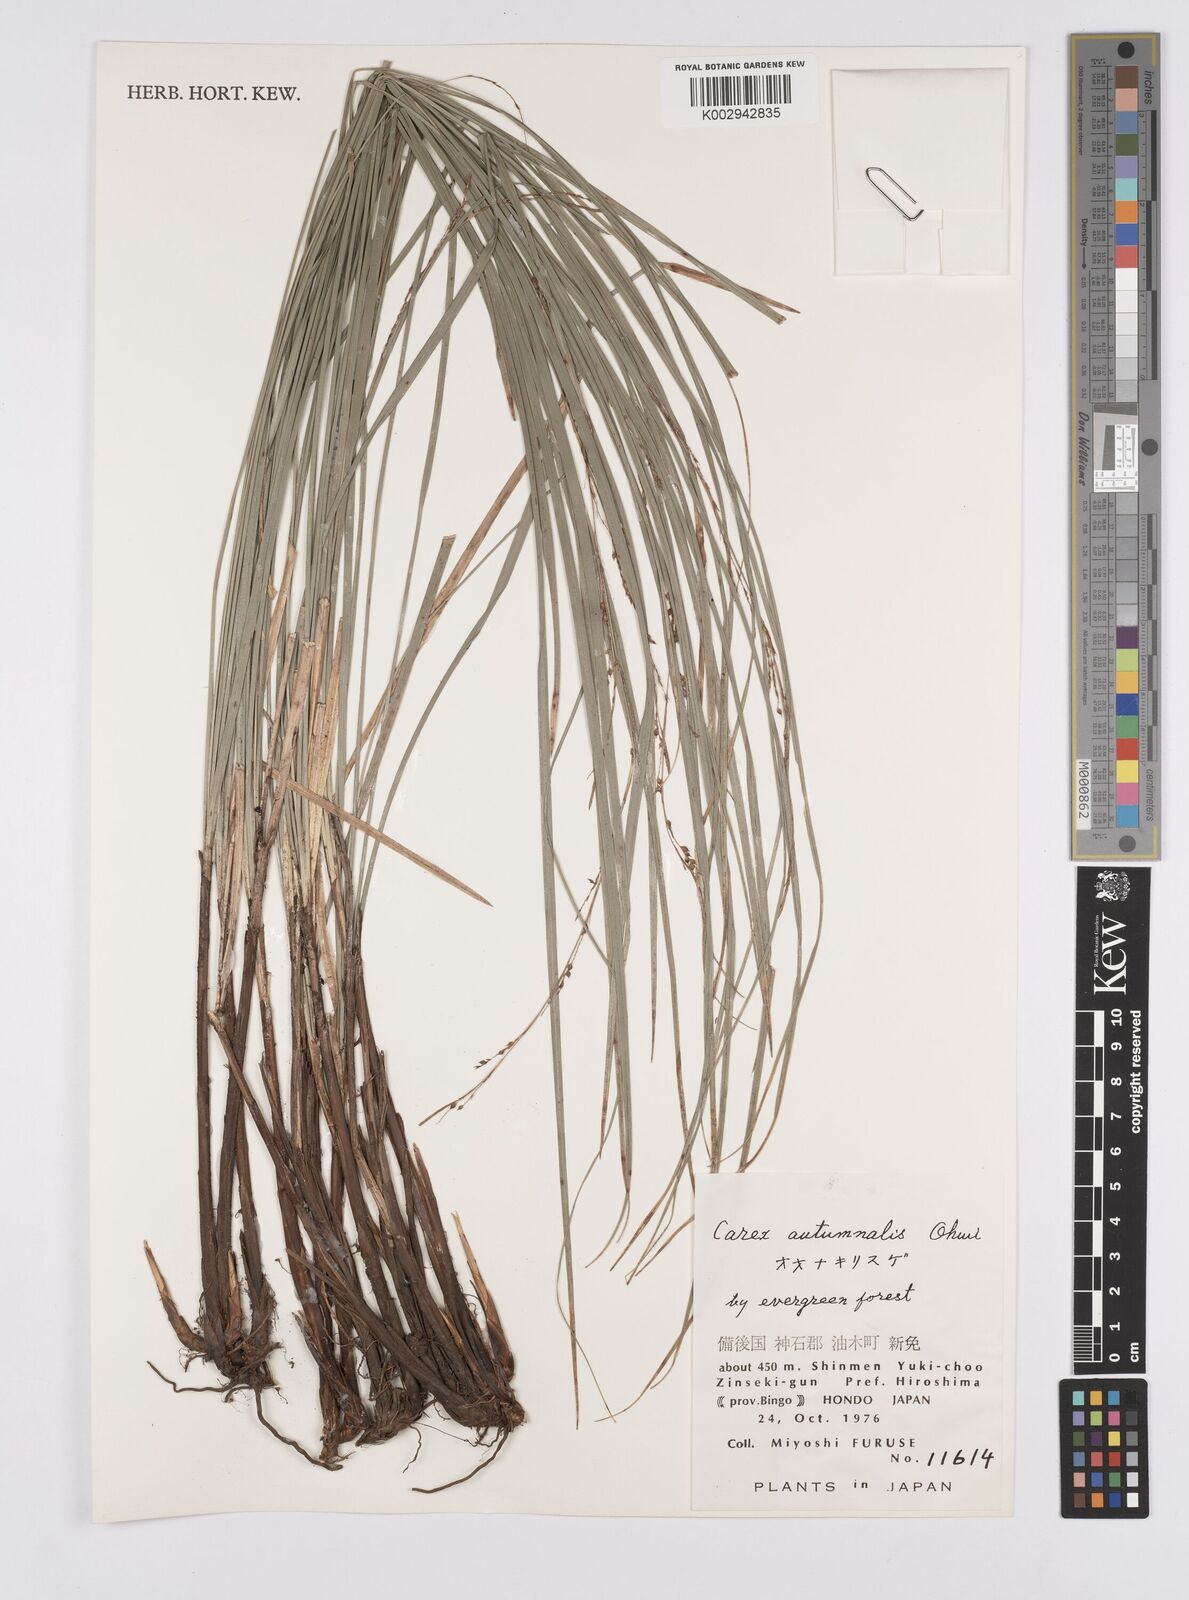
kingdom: Plantae
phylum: Tracheophyta
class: Liliopsida
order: Poales
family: Cyperaceae
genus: Carex
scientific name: Carex autumnalis
